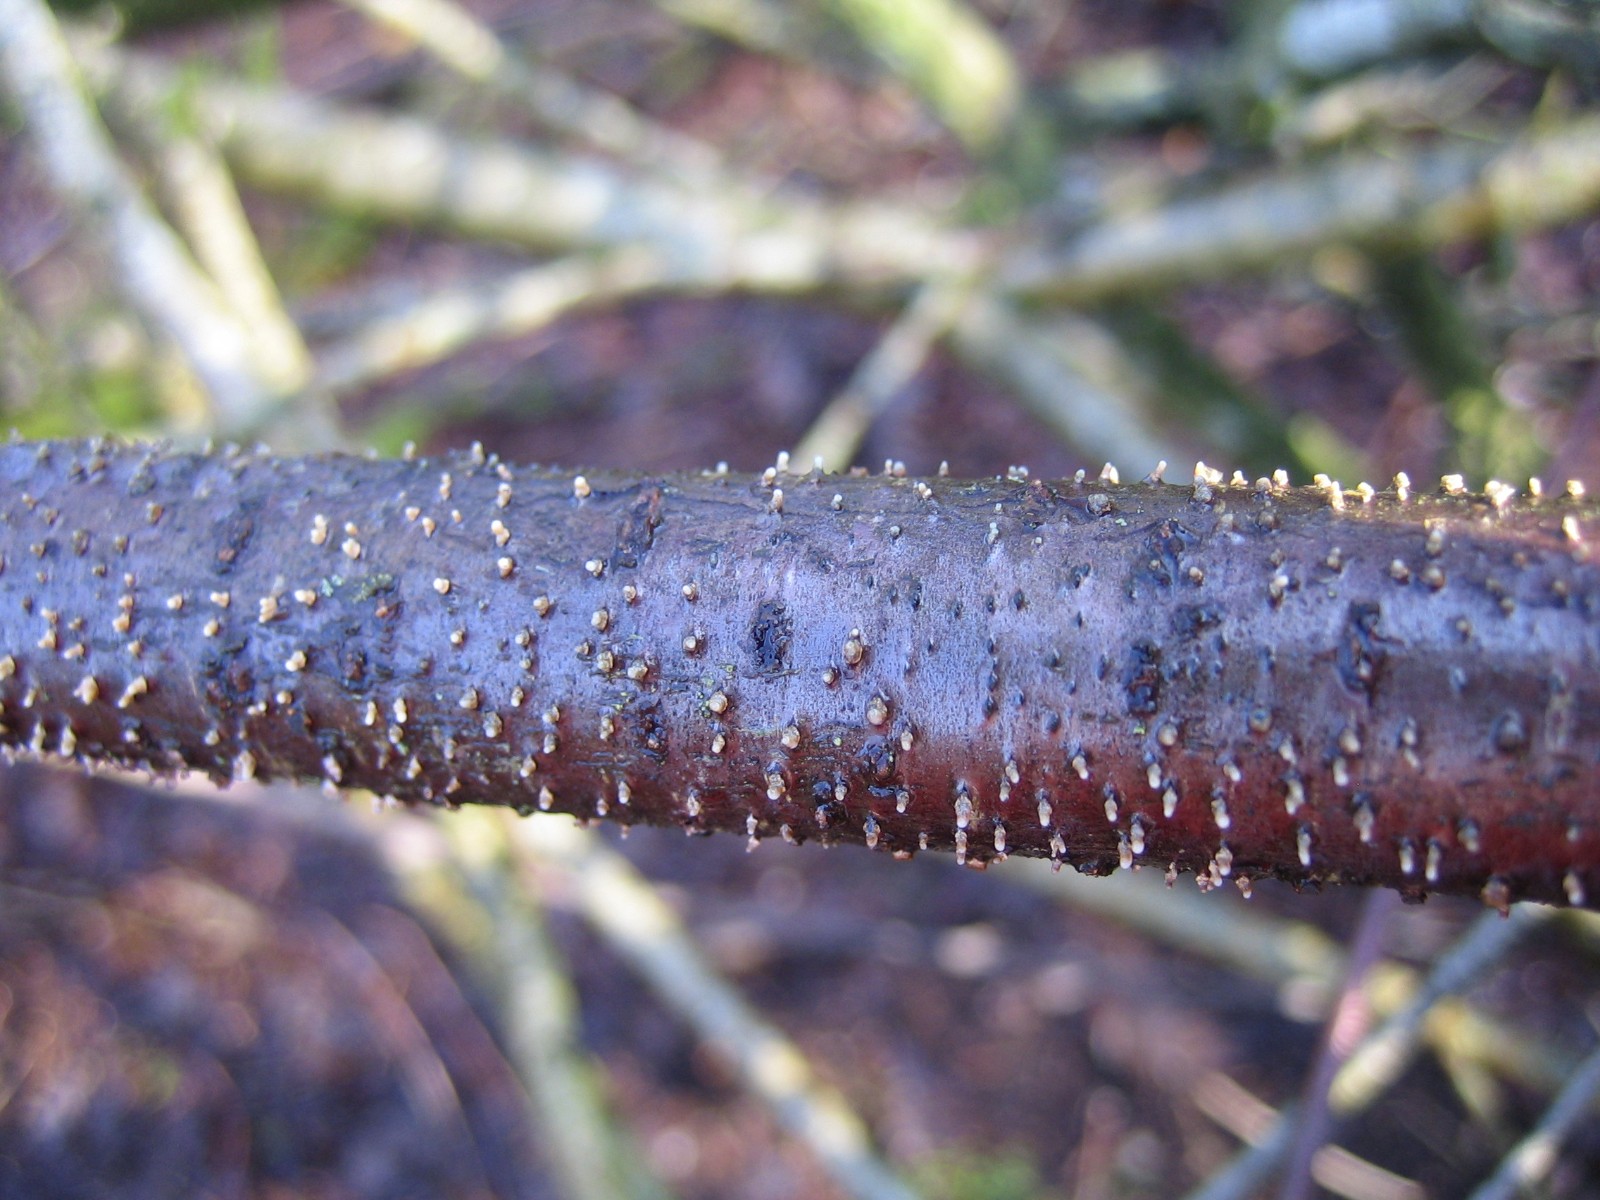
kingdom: Fungi
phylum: Ascomycota
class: Leotiomycetes
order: Helotiales
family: Dermateaceae
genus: Dermea
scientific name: Dermea cerasi
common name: kirsebær-klyngeskive
